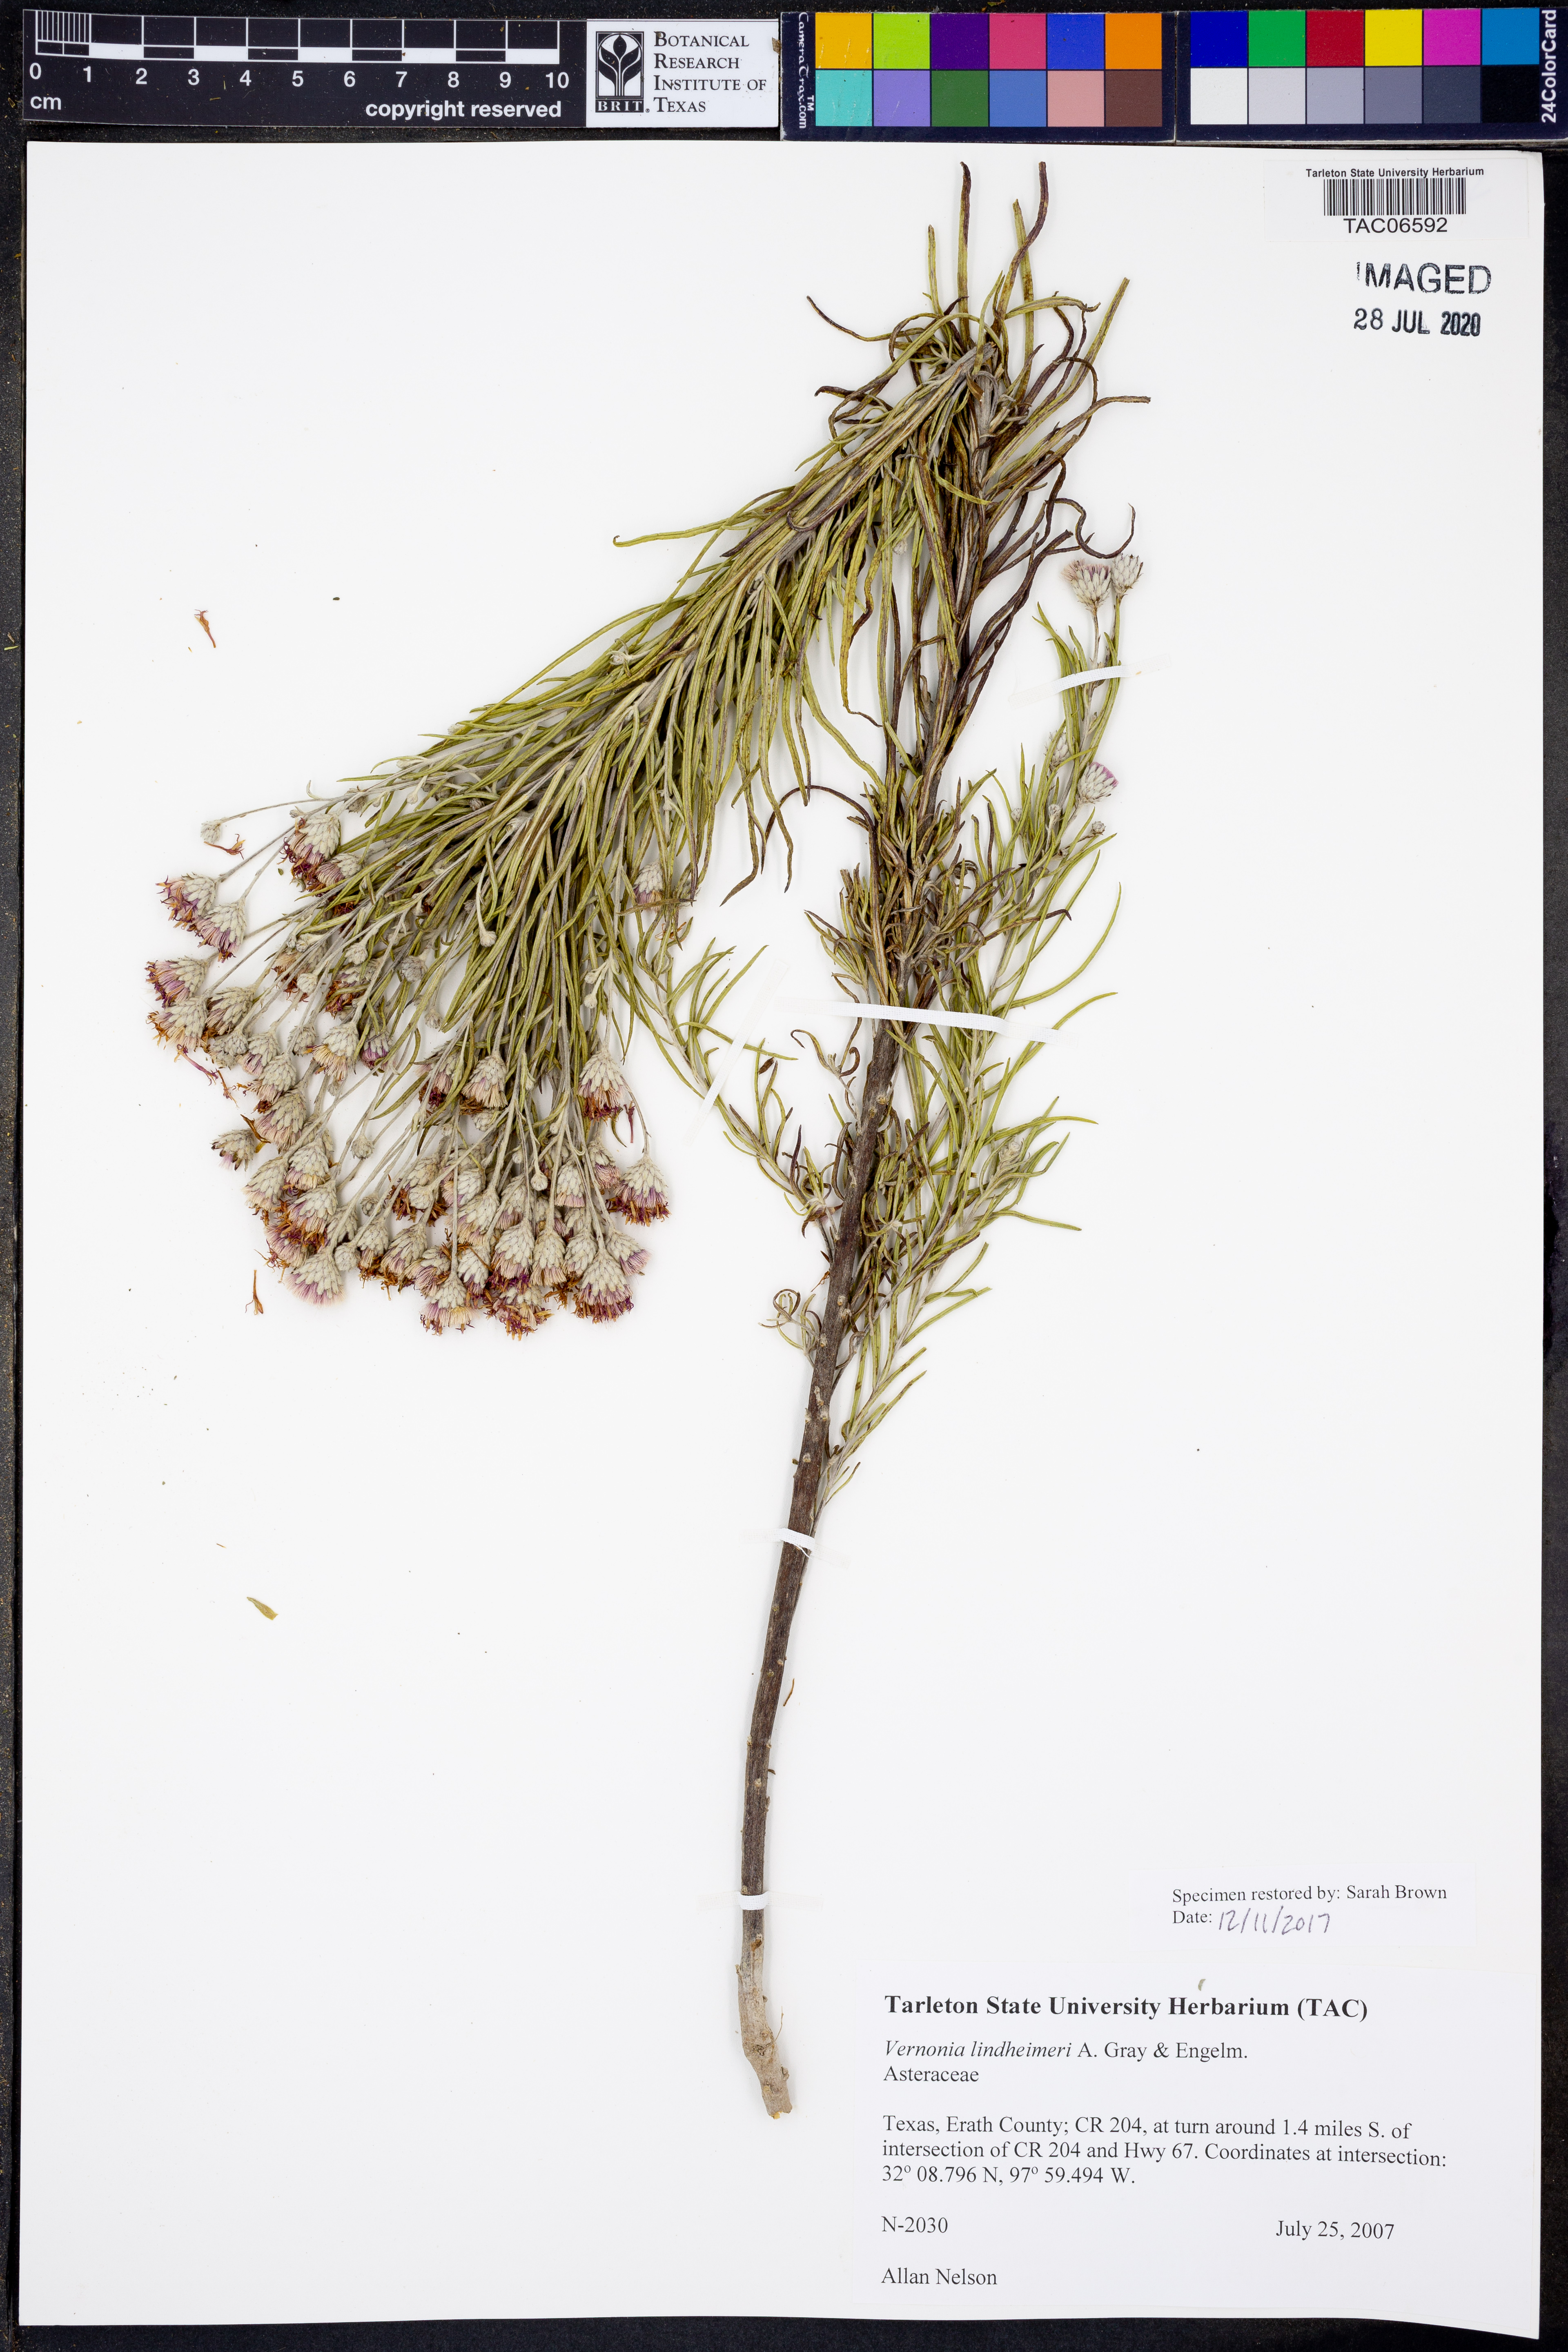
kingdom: Plantae
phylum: Tracheophyta
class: Magnoliopsida
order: Asterales
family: Asteraceae
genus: Vernonia
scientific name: Vernonia lindheimeri
